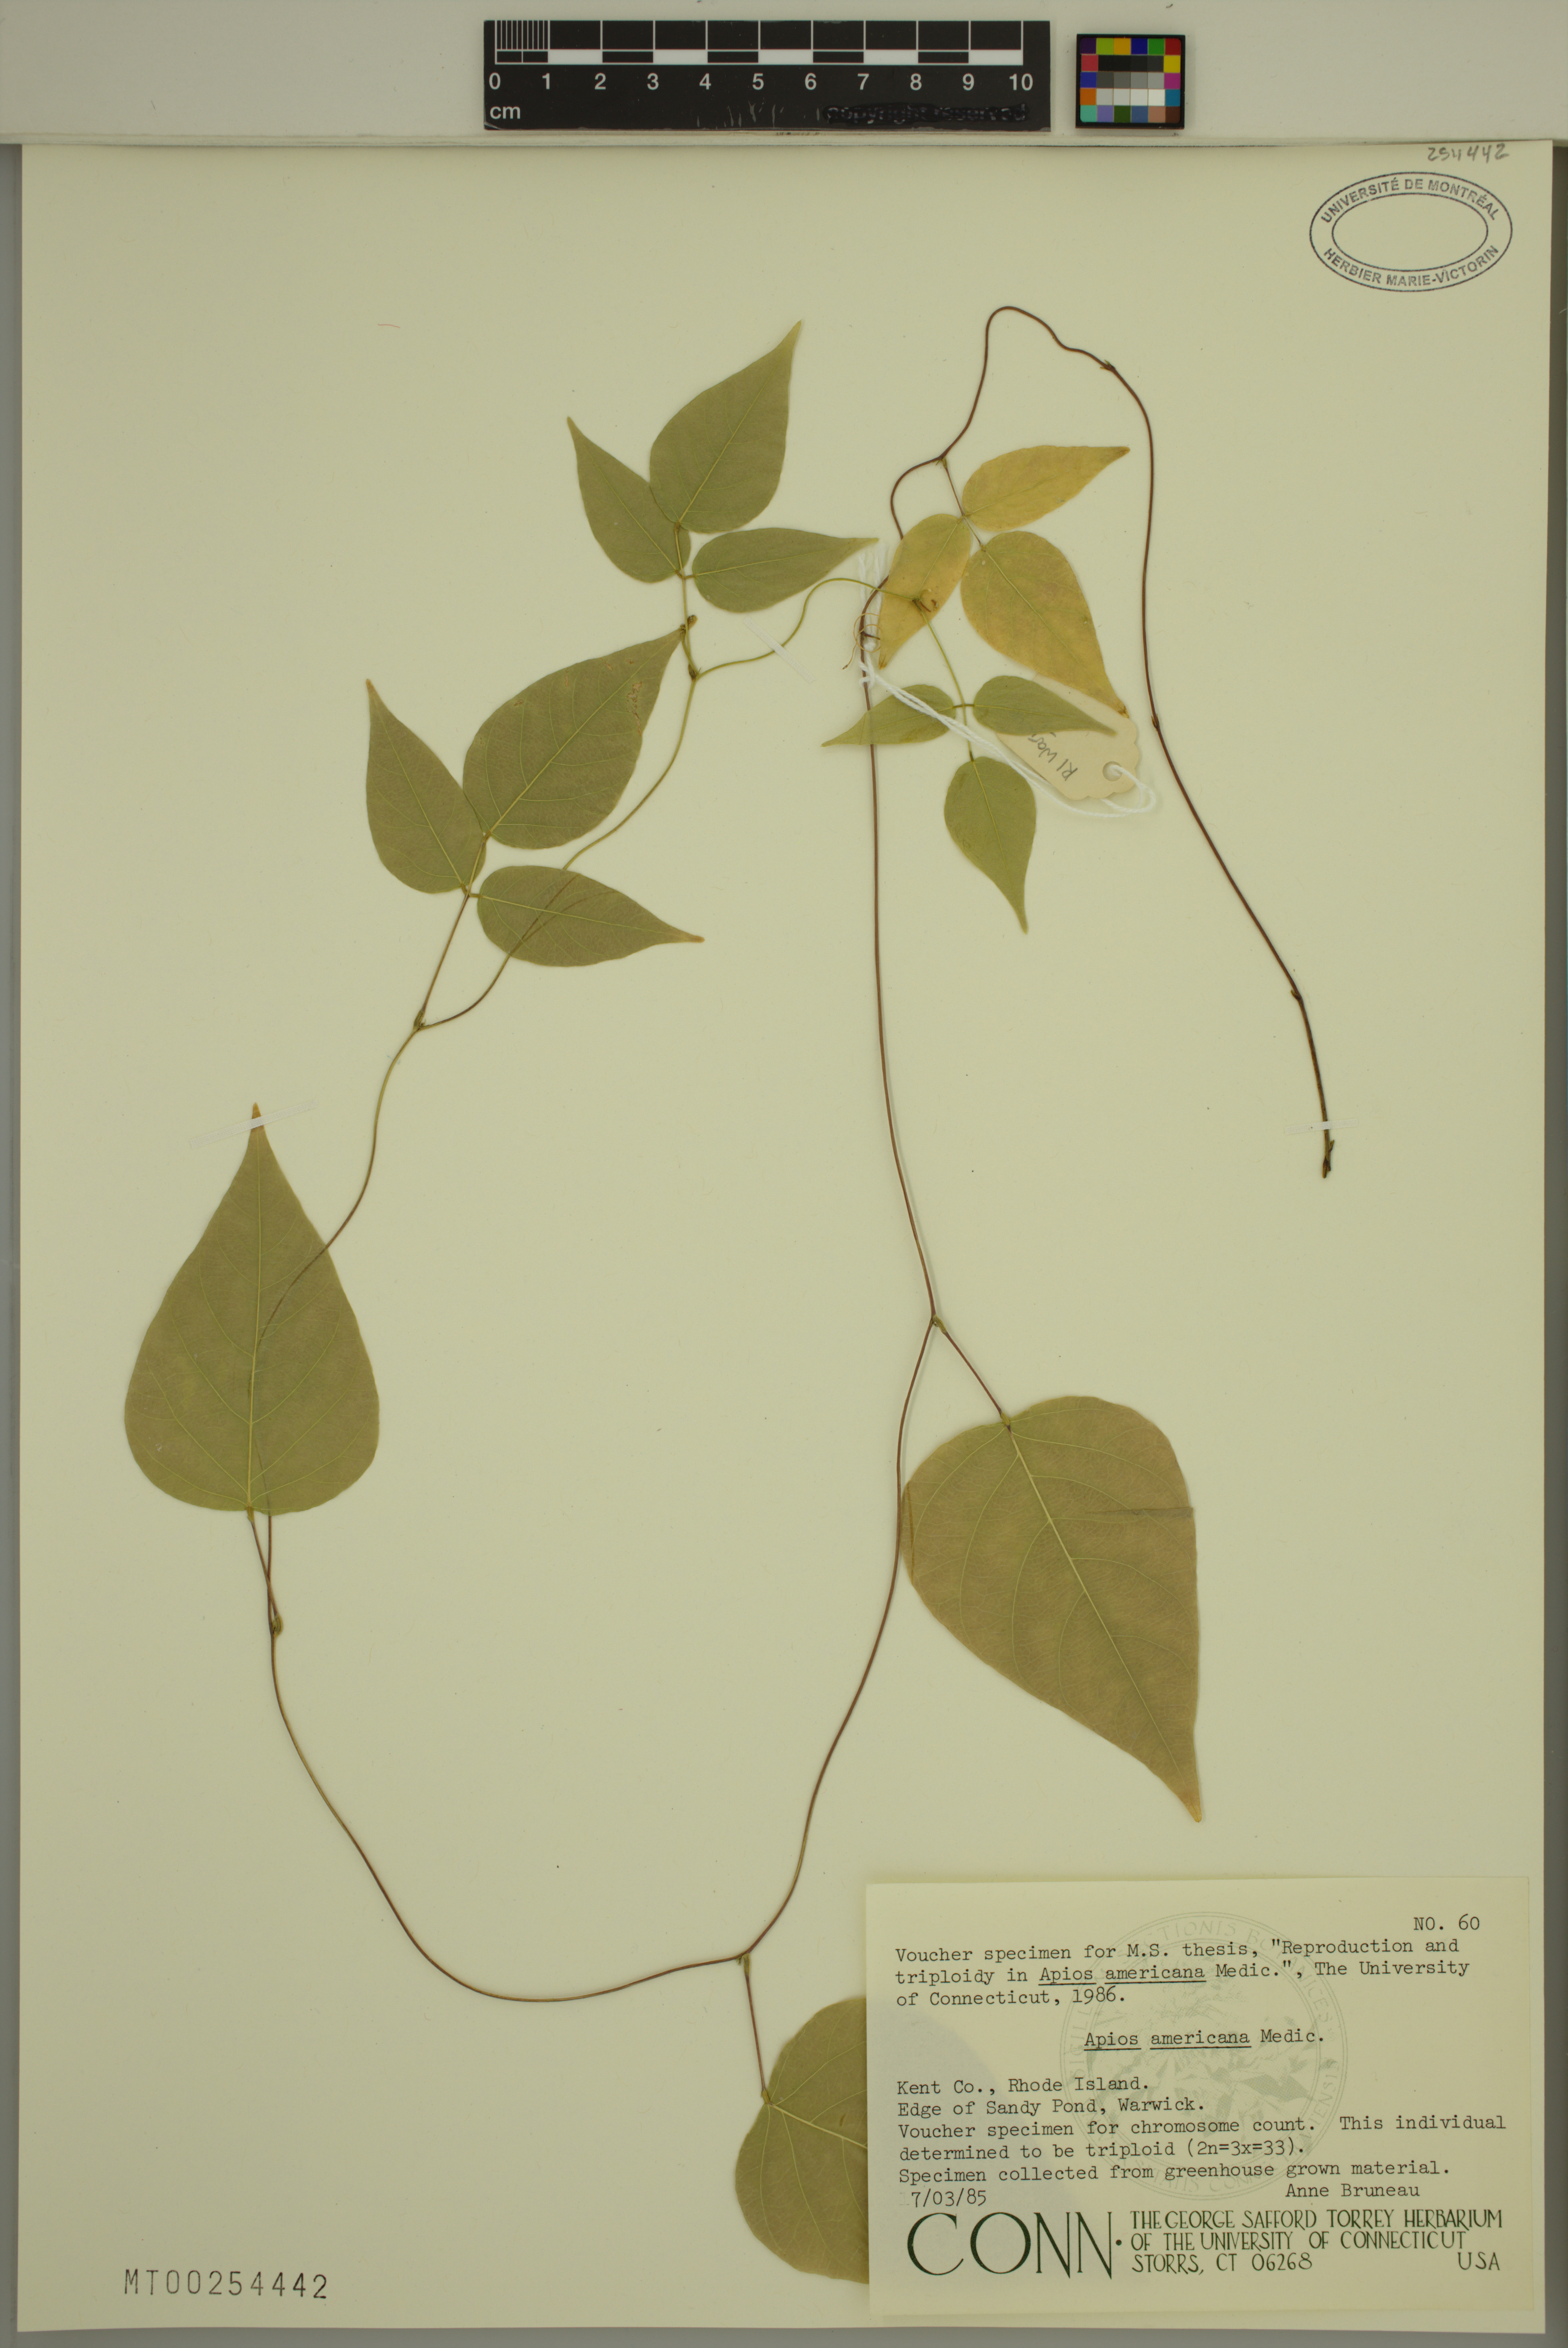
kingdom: Plantae
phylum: Tracheophyta
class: Magnoliopsida
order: Fabales
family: Fabaceae
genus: Apios
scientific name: Apios americana
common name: American potato-bean
